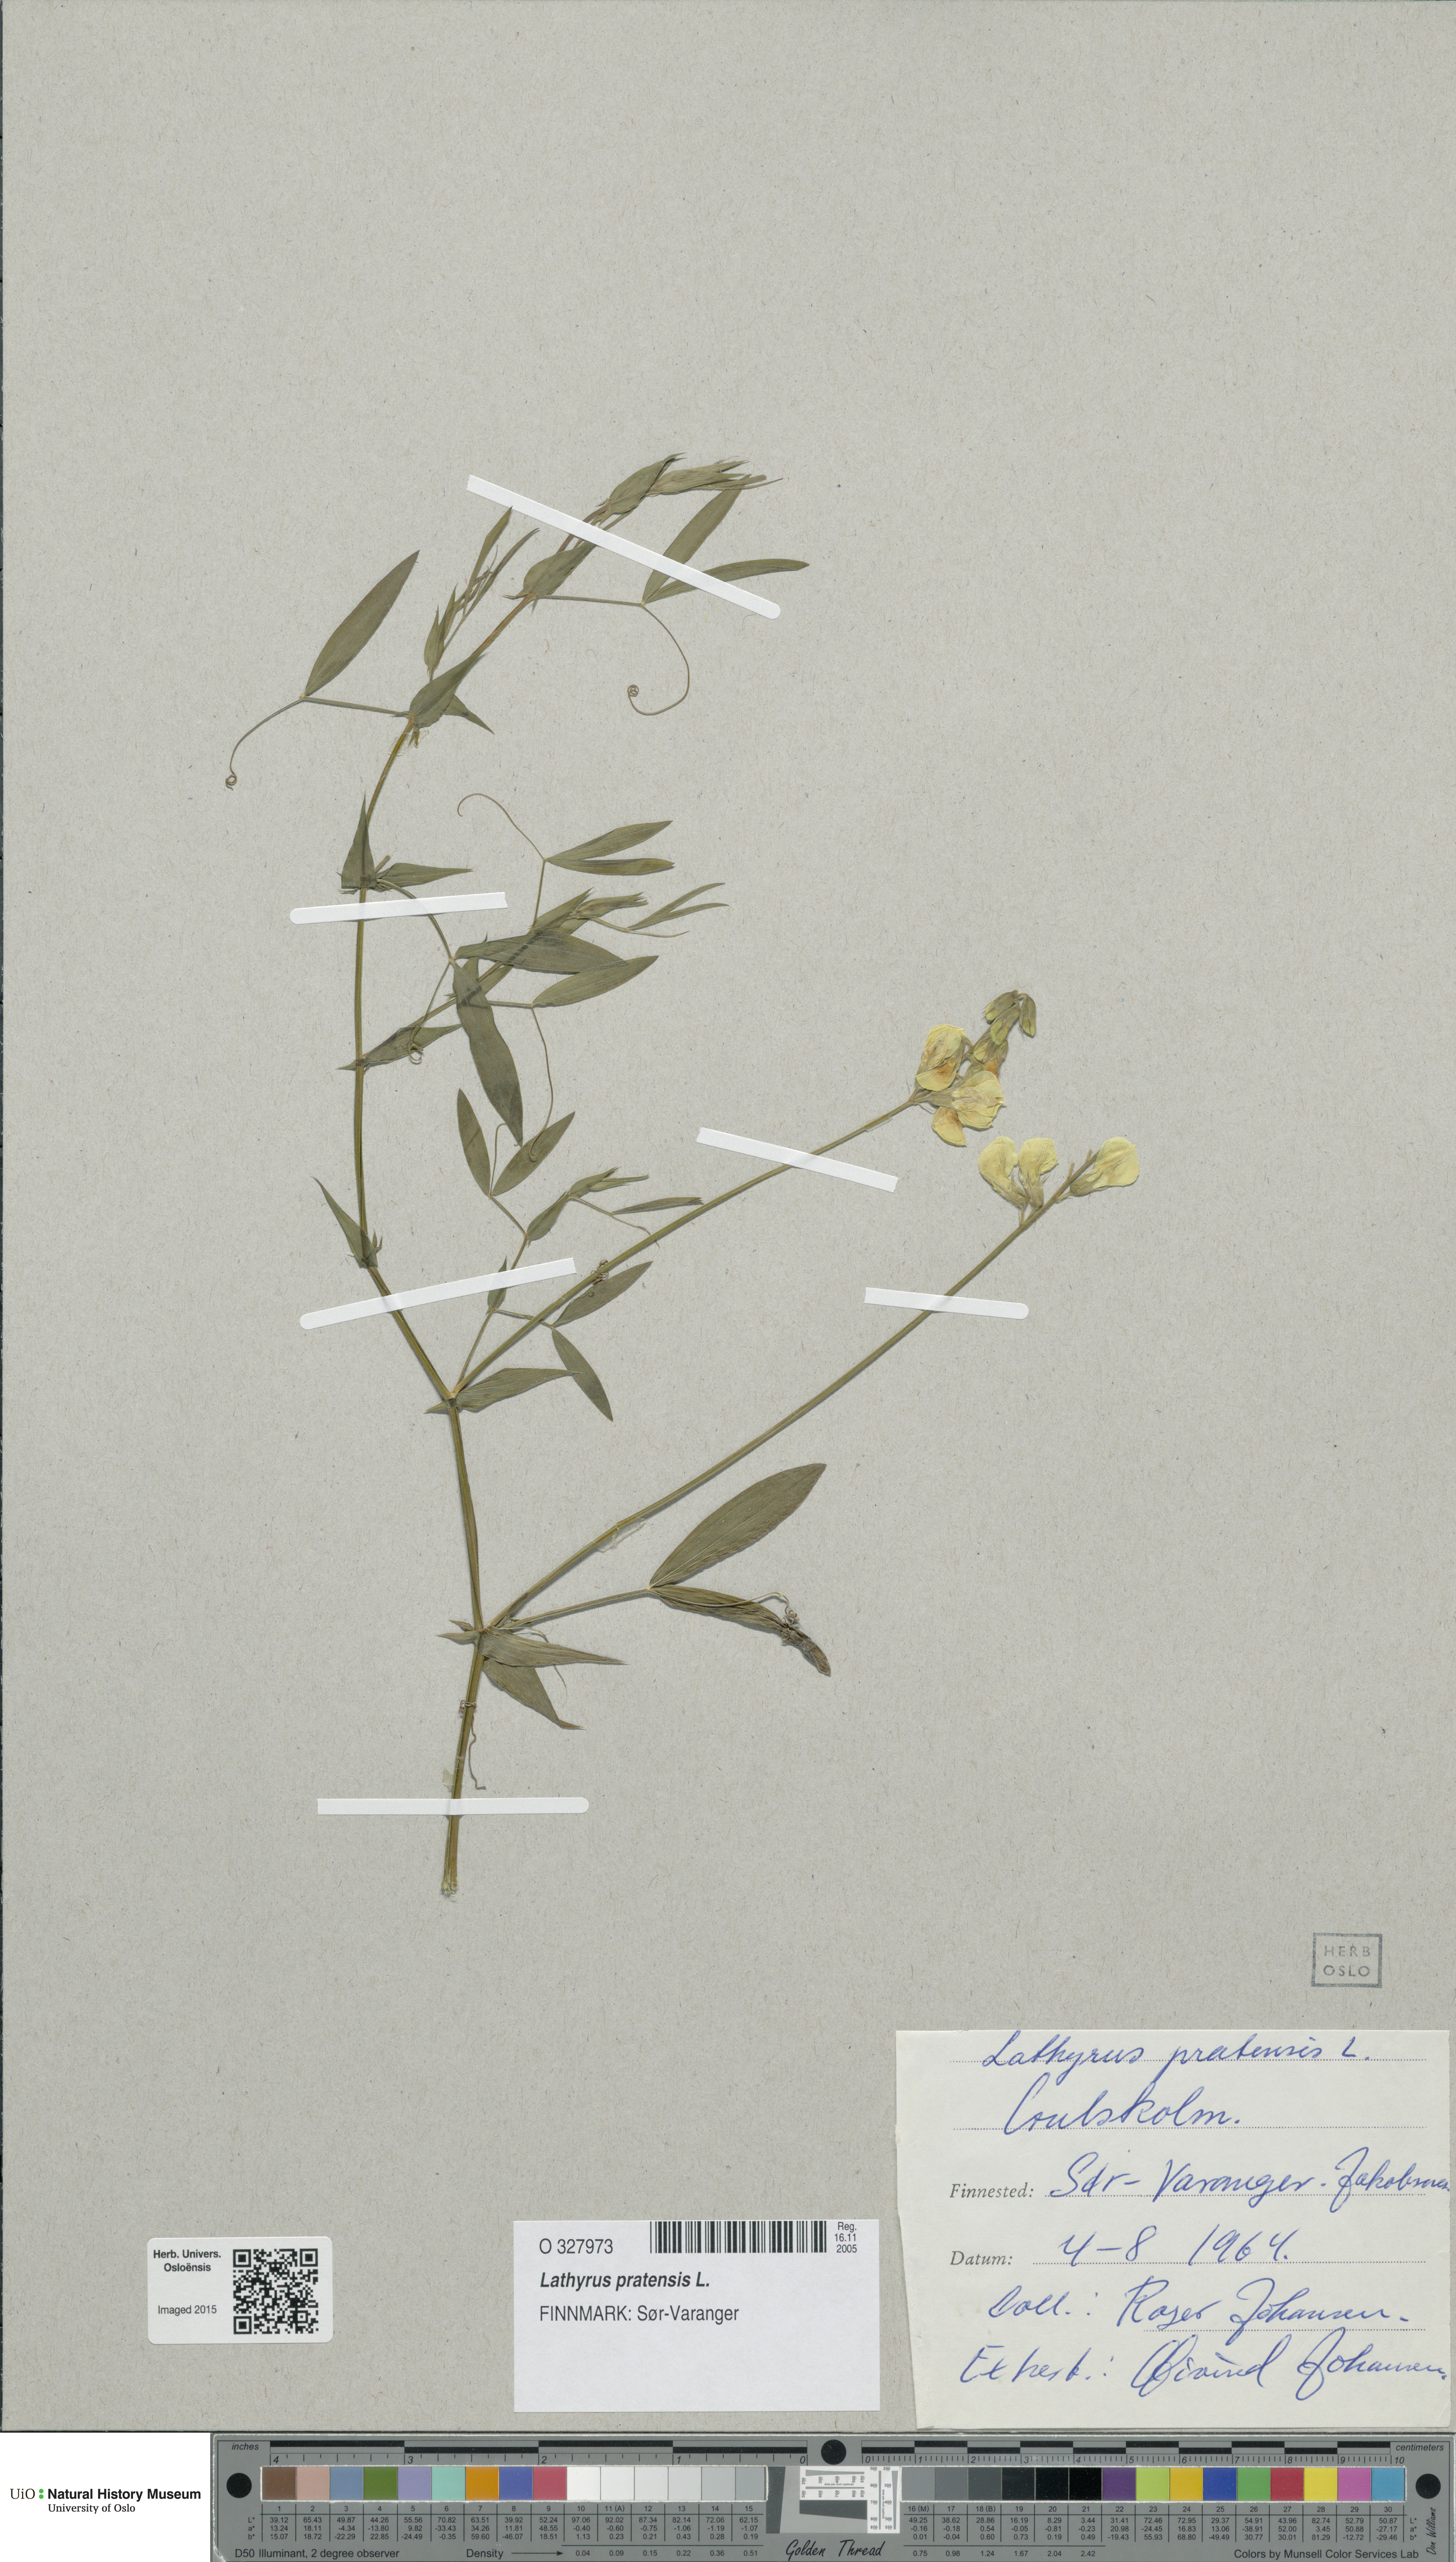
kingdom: Plantae
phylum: Tracheophyta
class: Magnoliopsida
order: Fabales
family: Fabaceae
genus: Lathyrus
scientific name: Lathyrus pratensis
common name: Meadow vetchling
